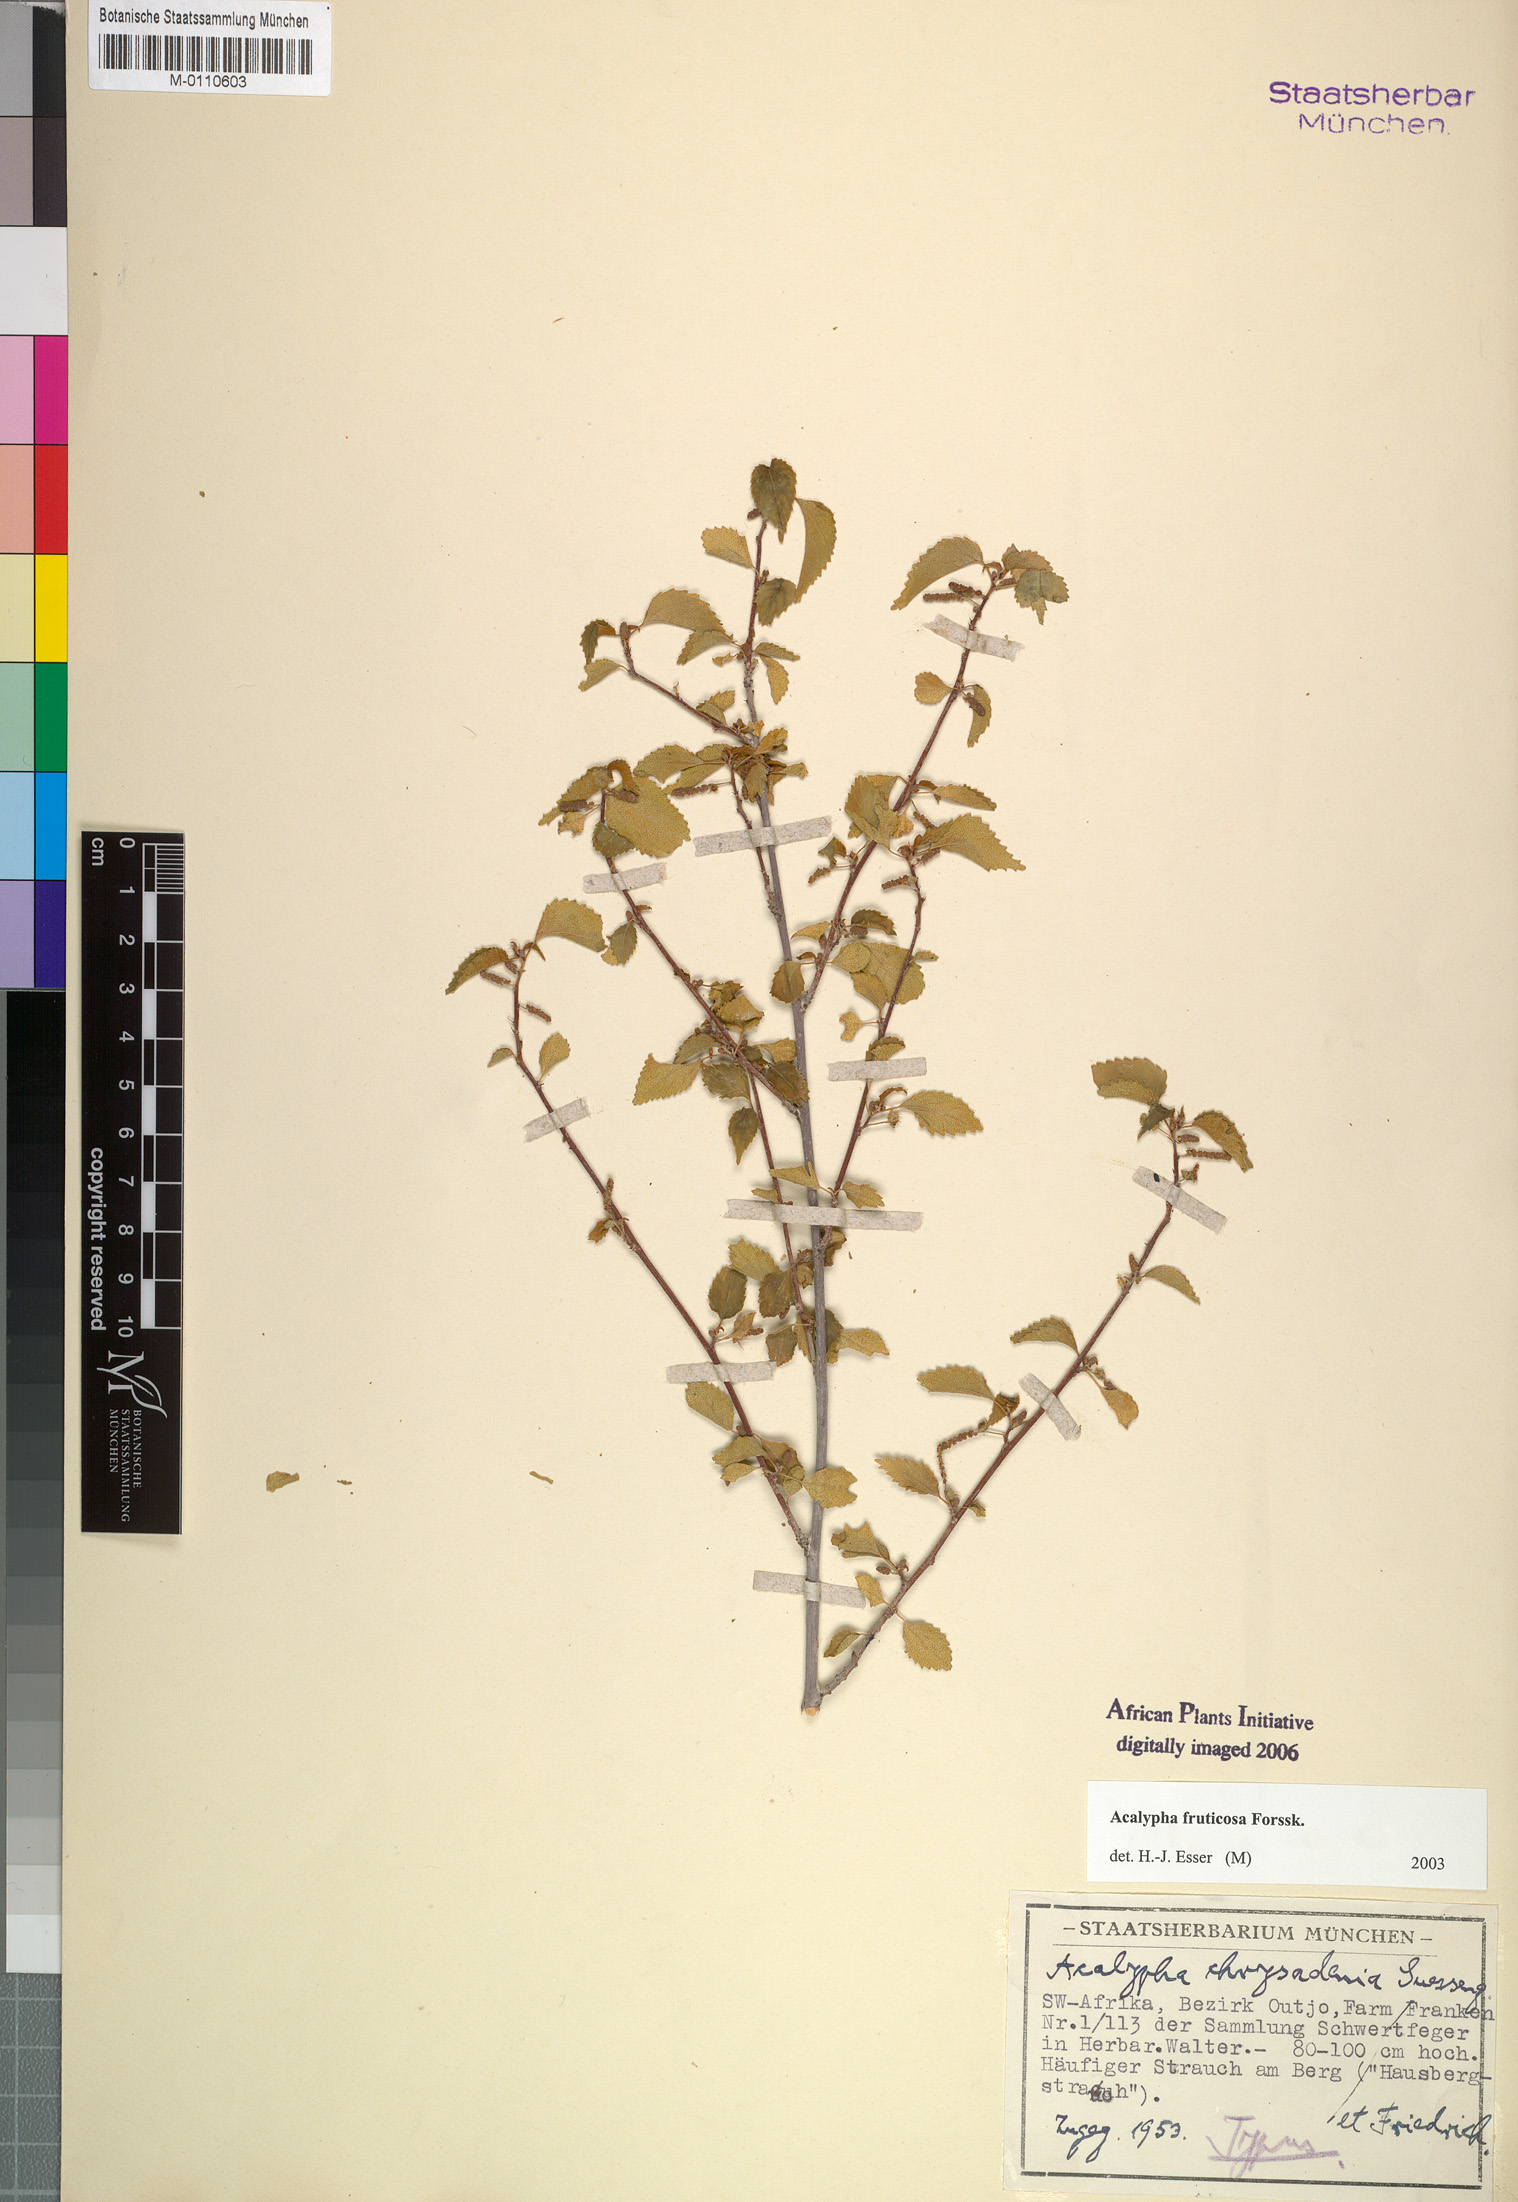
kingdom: Plantae
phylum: Tracheophyta
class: Magnoliopsida
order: Malpighiales
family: Euphorbiaceae
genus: Acalypha
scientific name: Acalypha fruticosa
